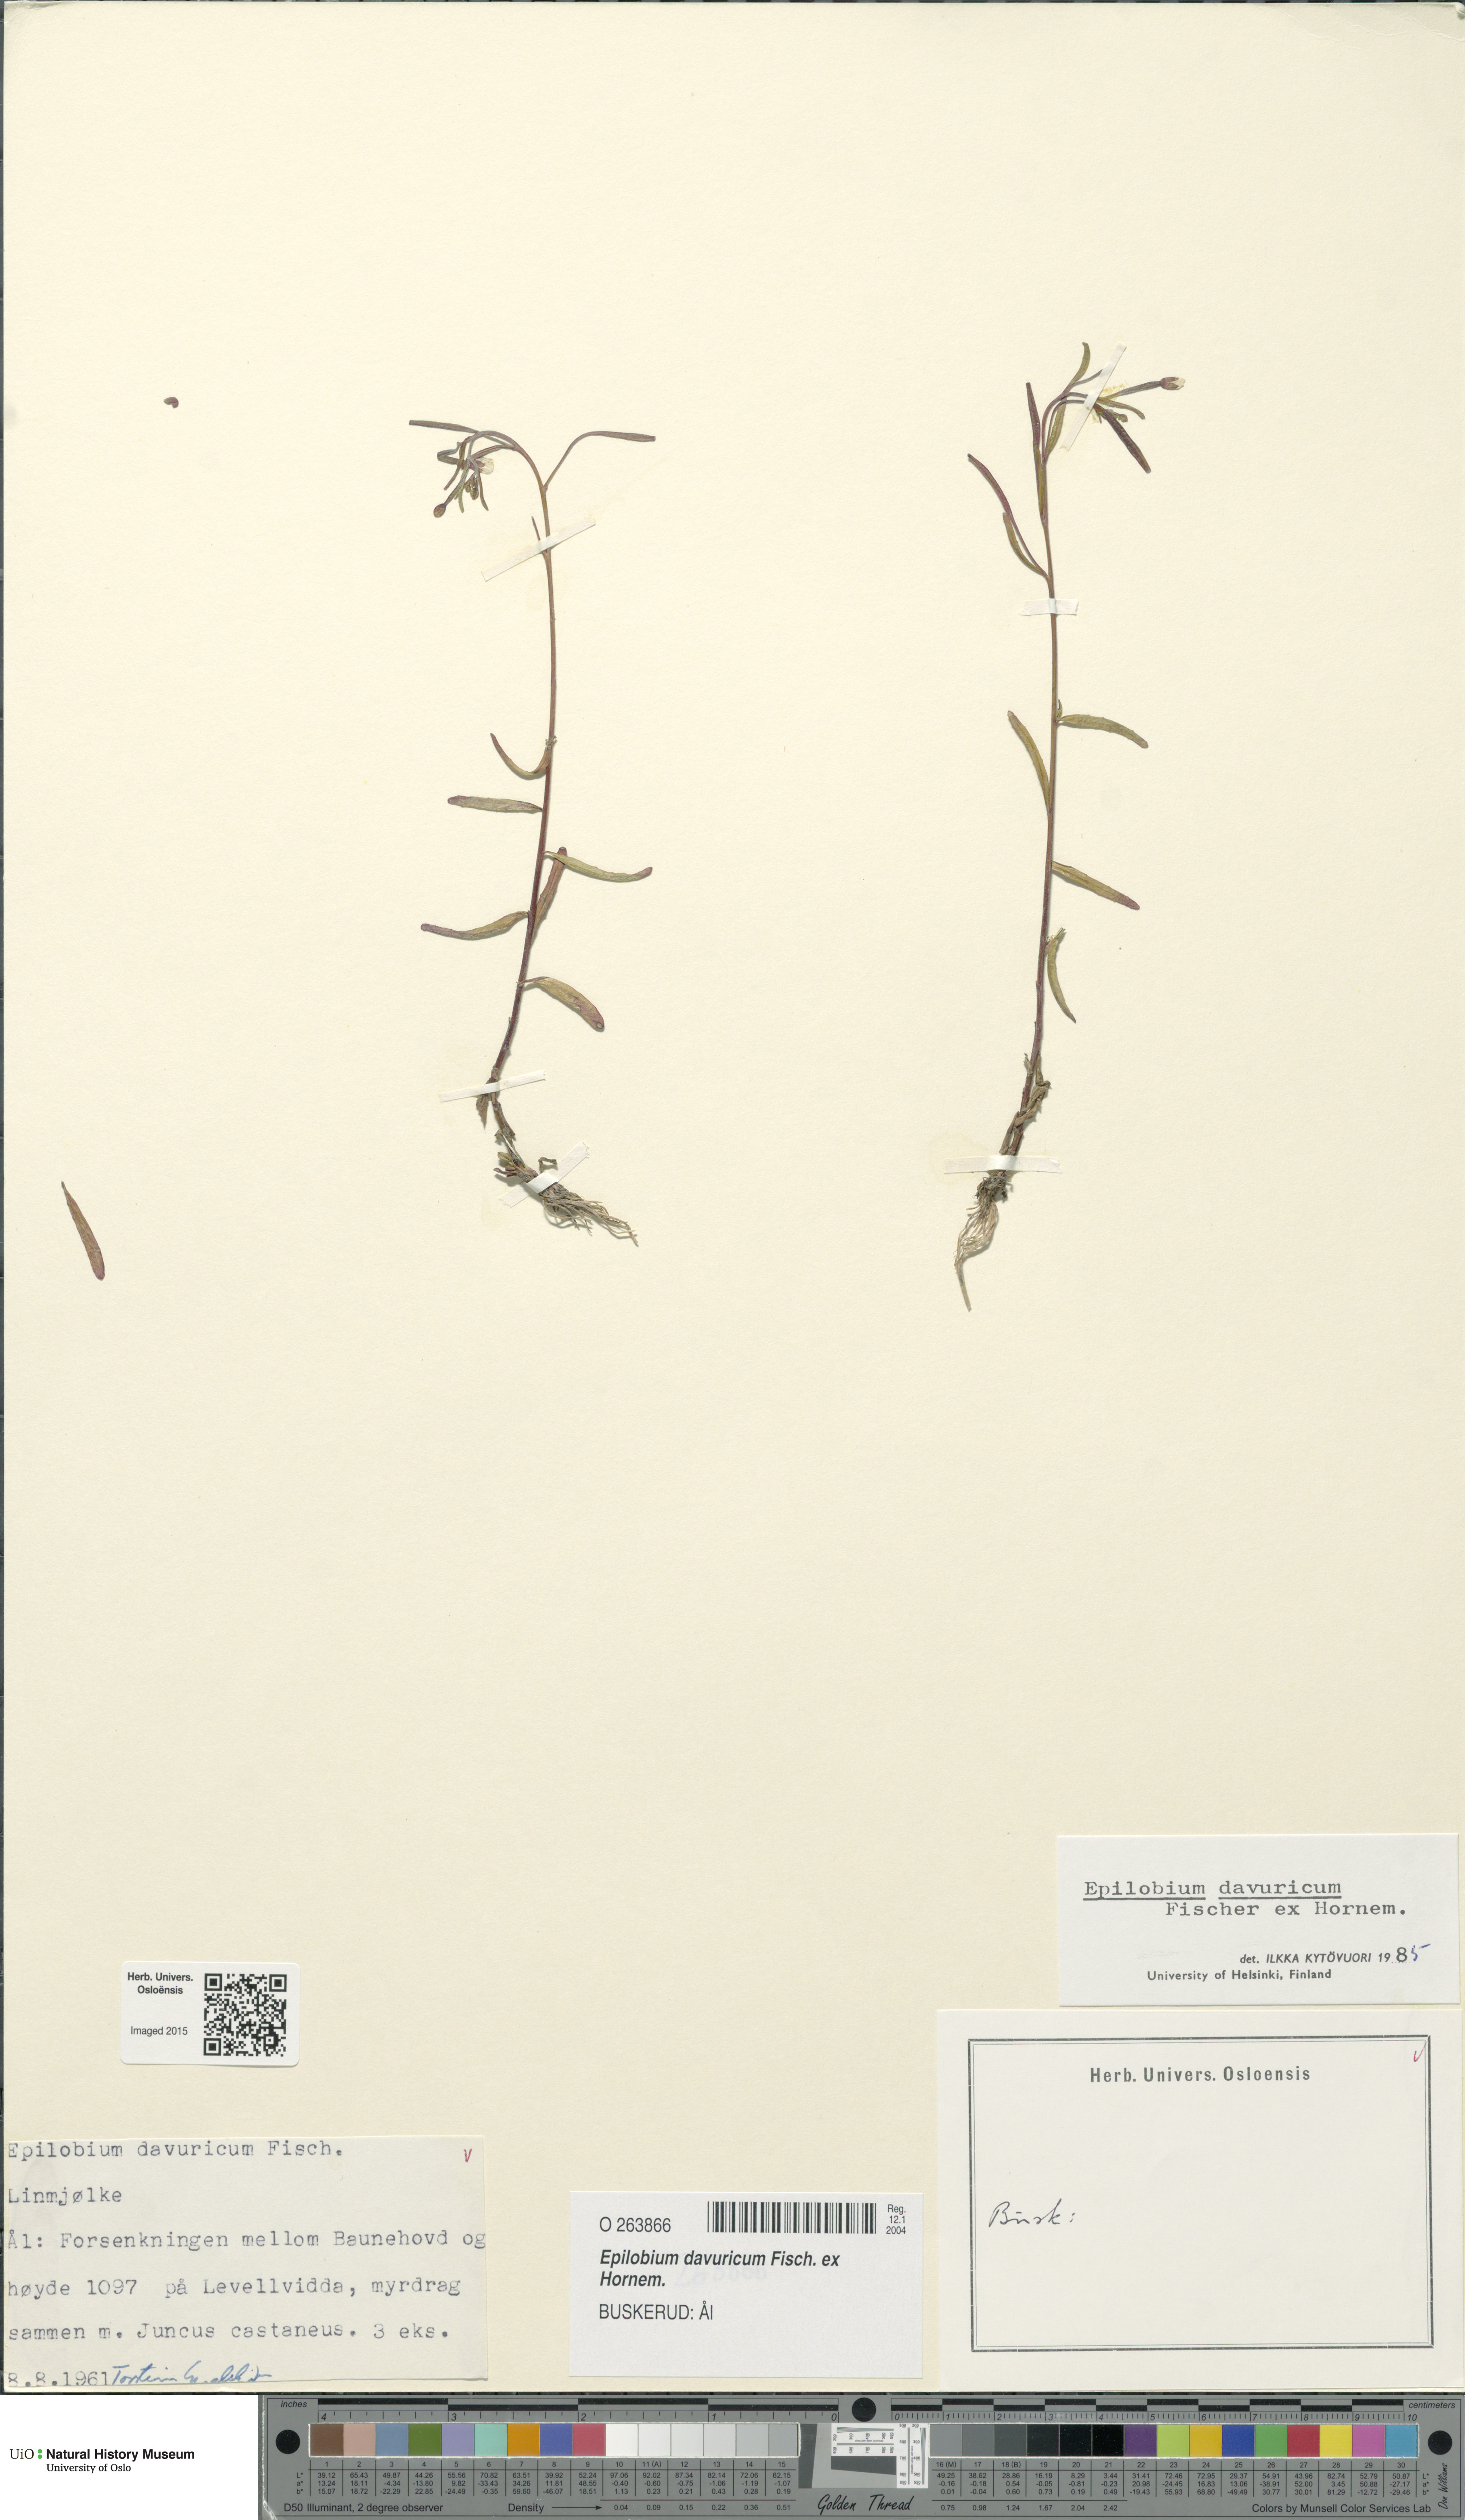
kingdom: Plantae
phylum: Tracheophyta
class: Magnoliopsida
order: Myrtales
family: Onagraceae
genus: Epilobium
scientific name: Epilobium davuricum
